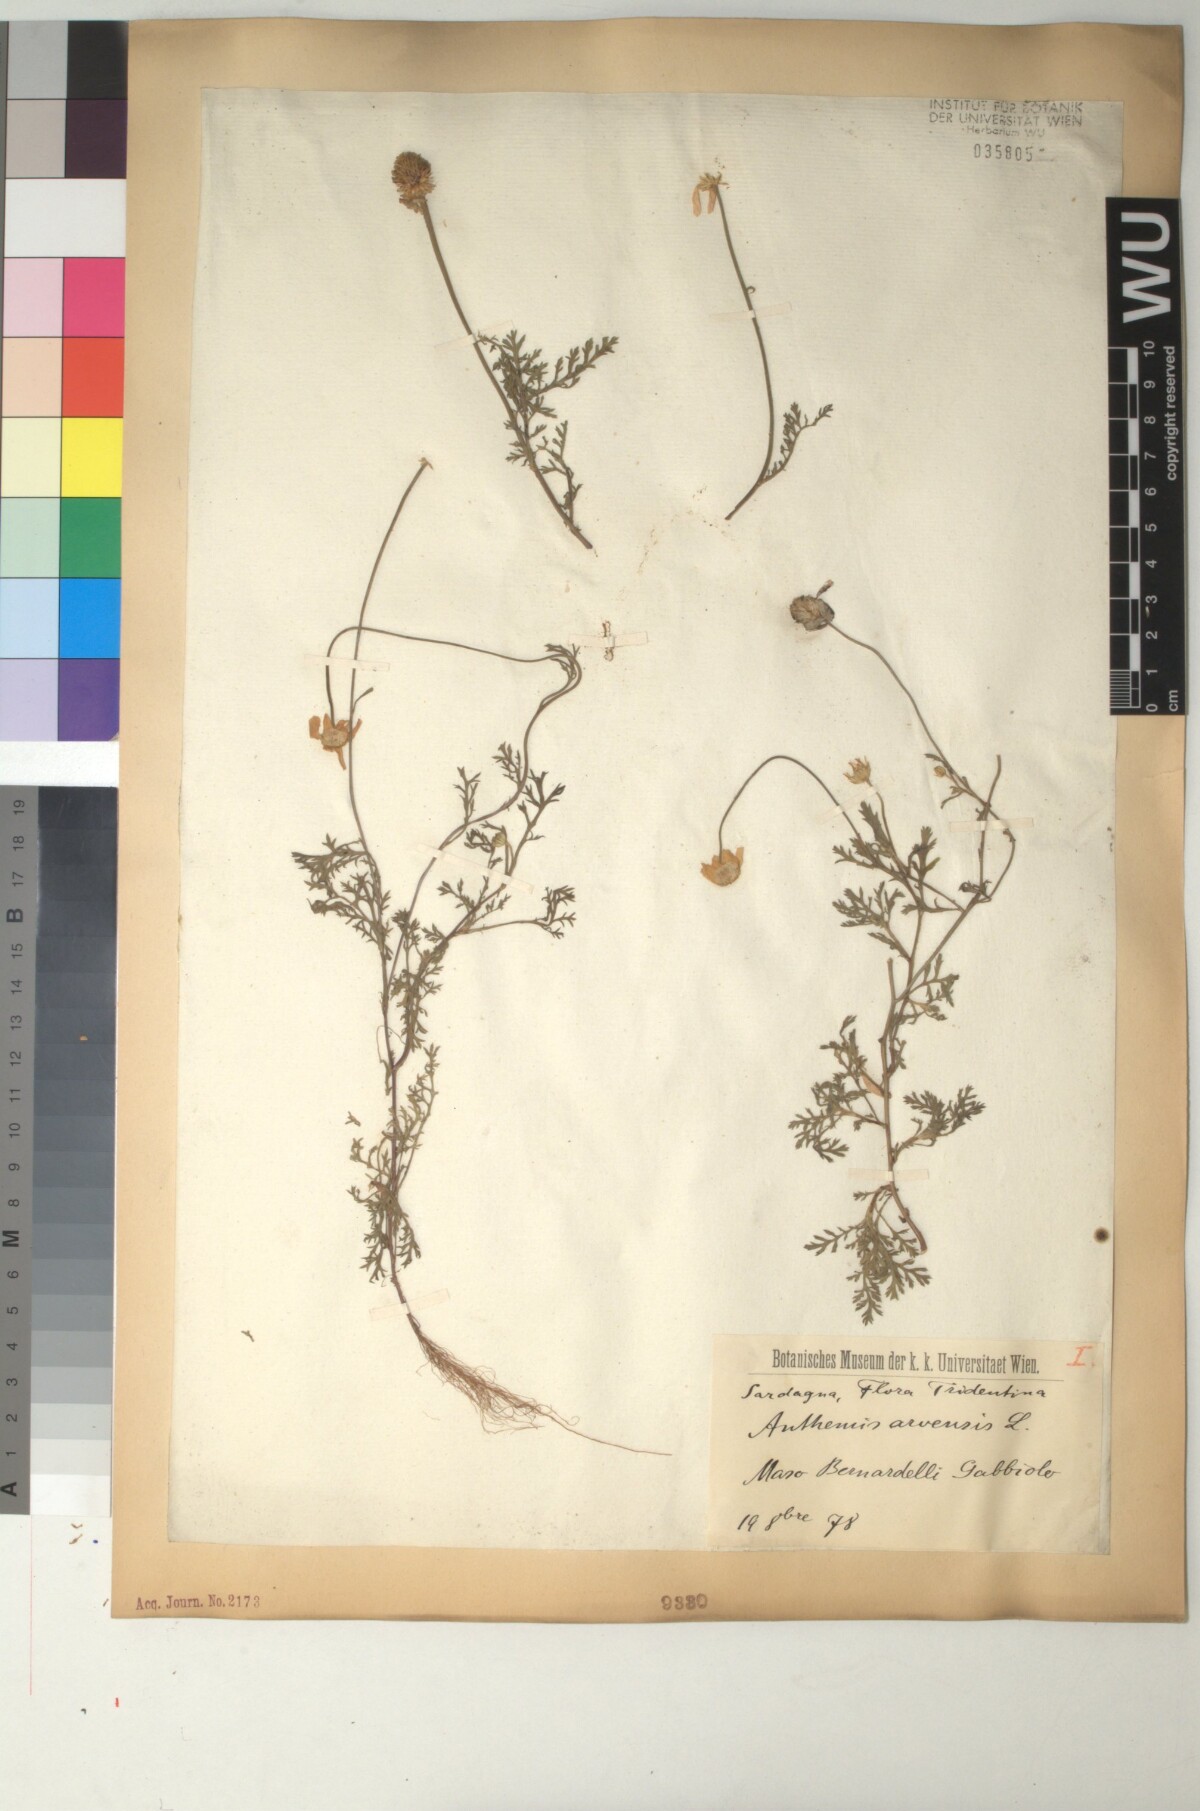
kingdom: Plantae
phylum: Tracheophyta
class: Magnoliopsida
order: Asterales
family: Asteraceae
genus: Anthemis
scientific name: Anthemis arvensis
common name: Corn chamomile
